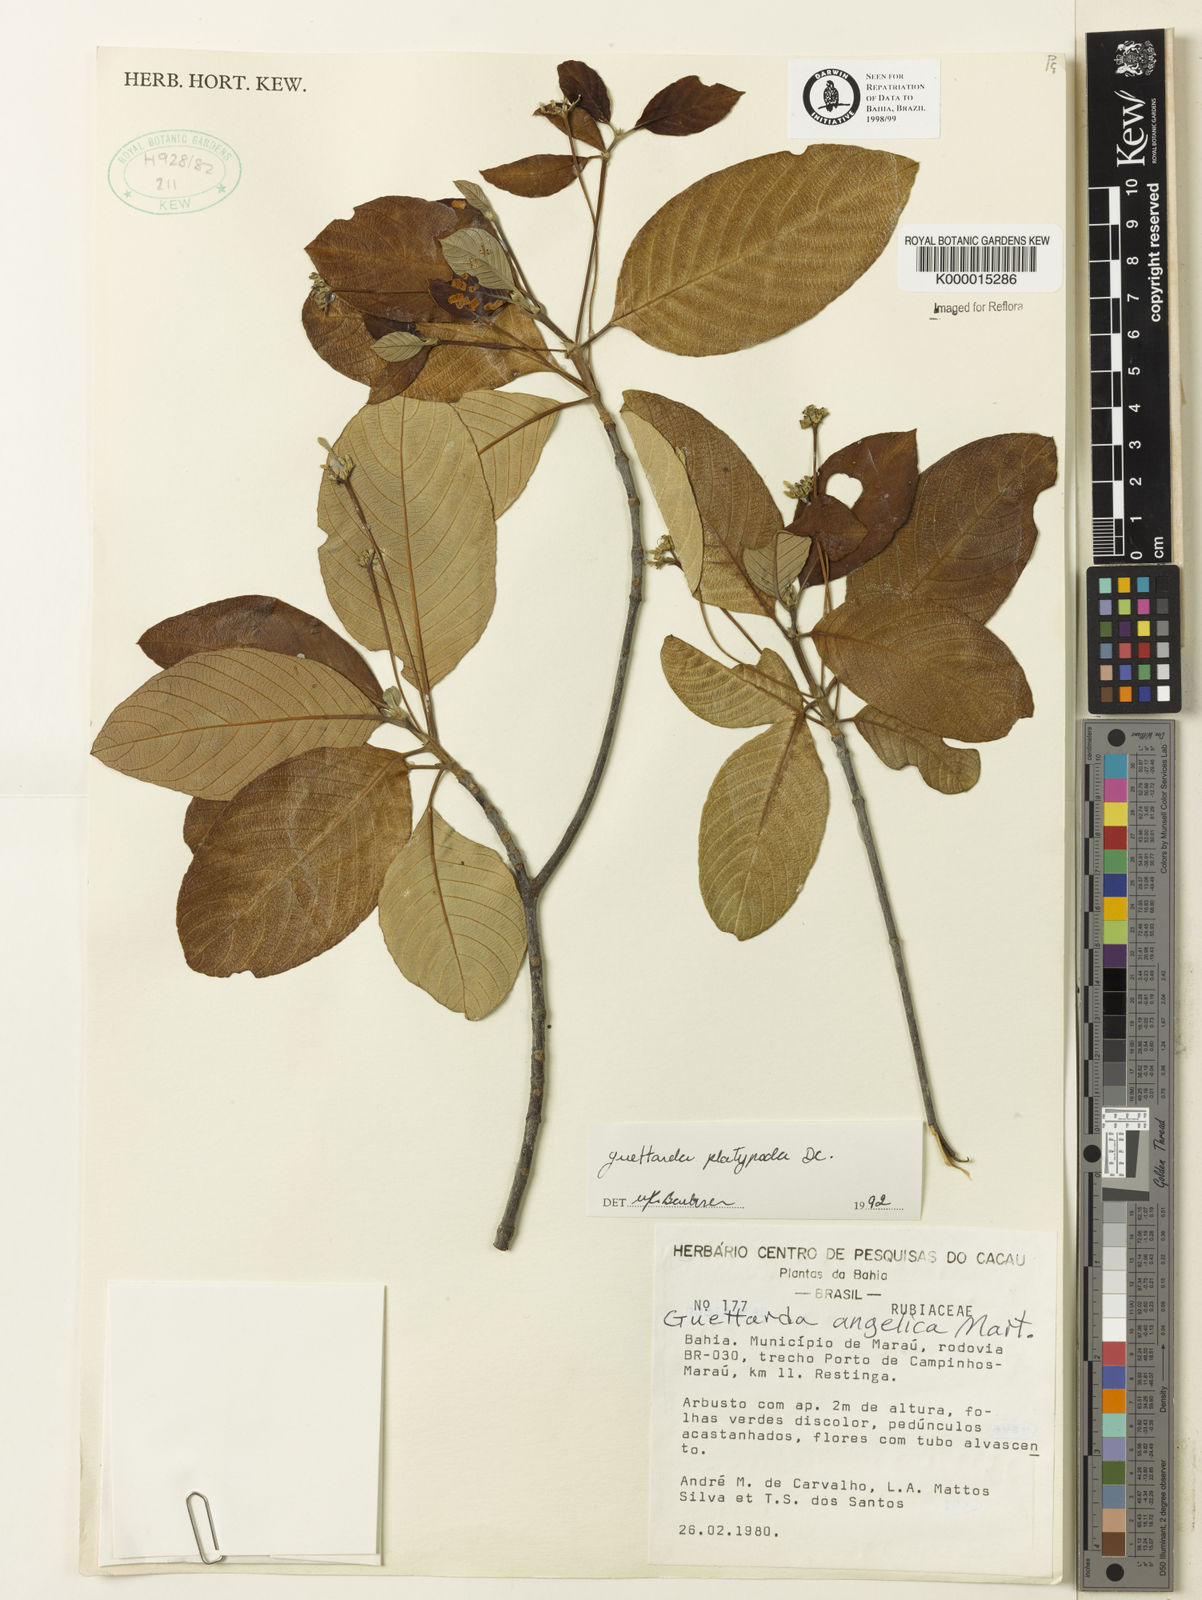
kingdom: Plantae
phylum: Tracheophyta
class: Magnoliopsida
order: Gentianales
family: Rubiaceae
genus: Guettarda
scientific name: Guettarda platypoda
